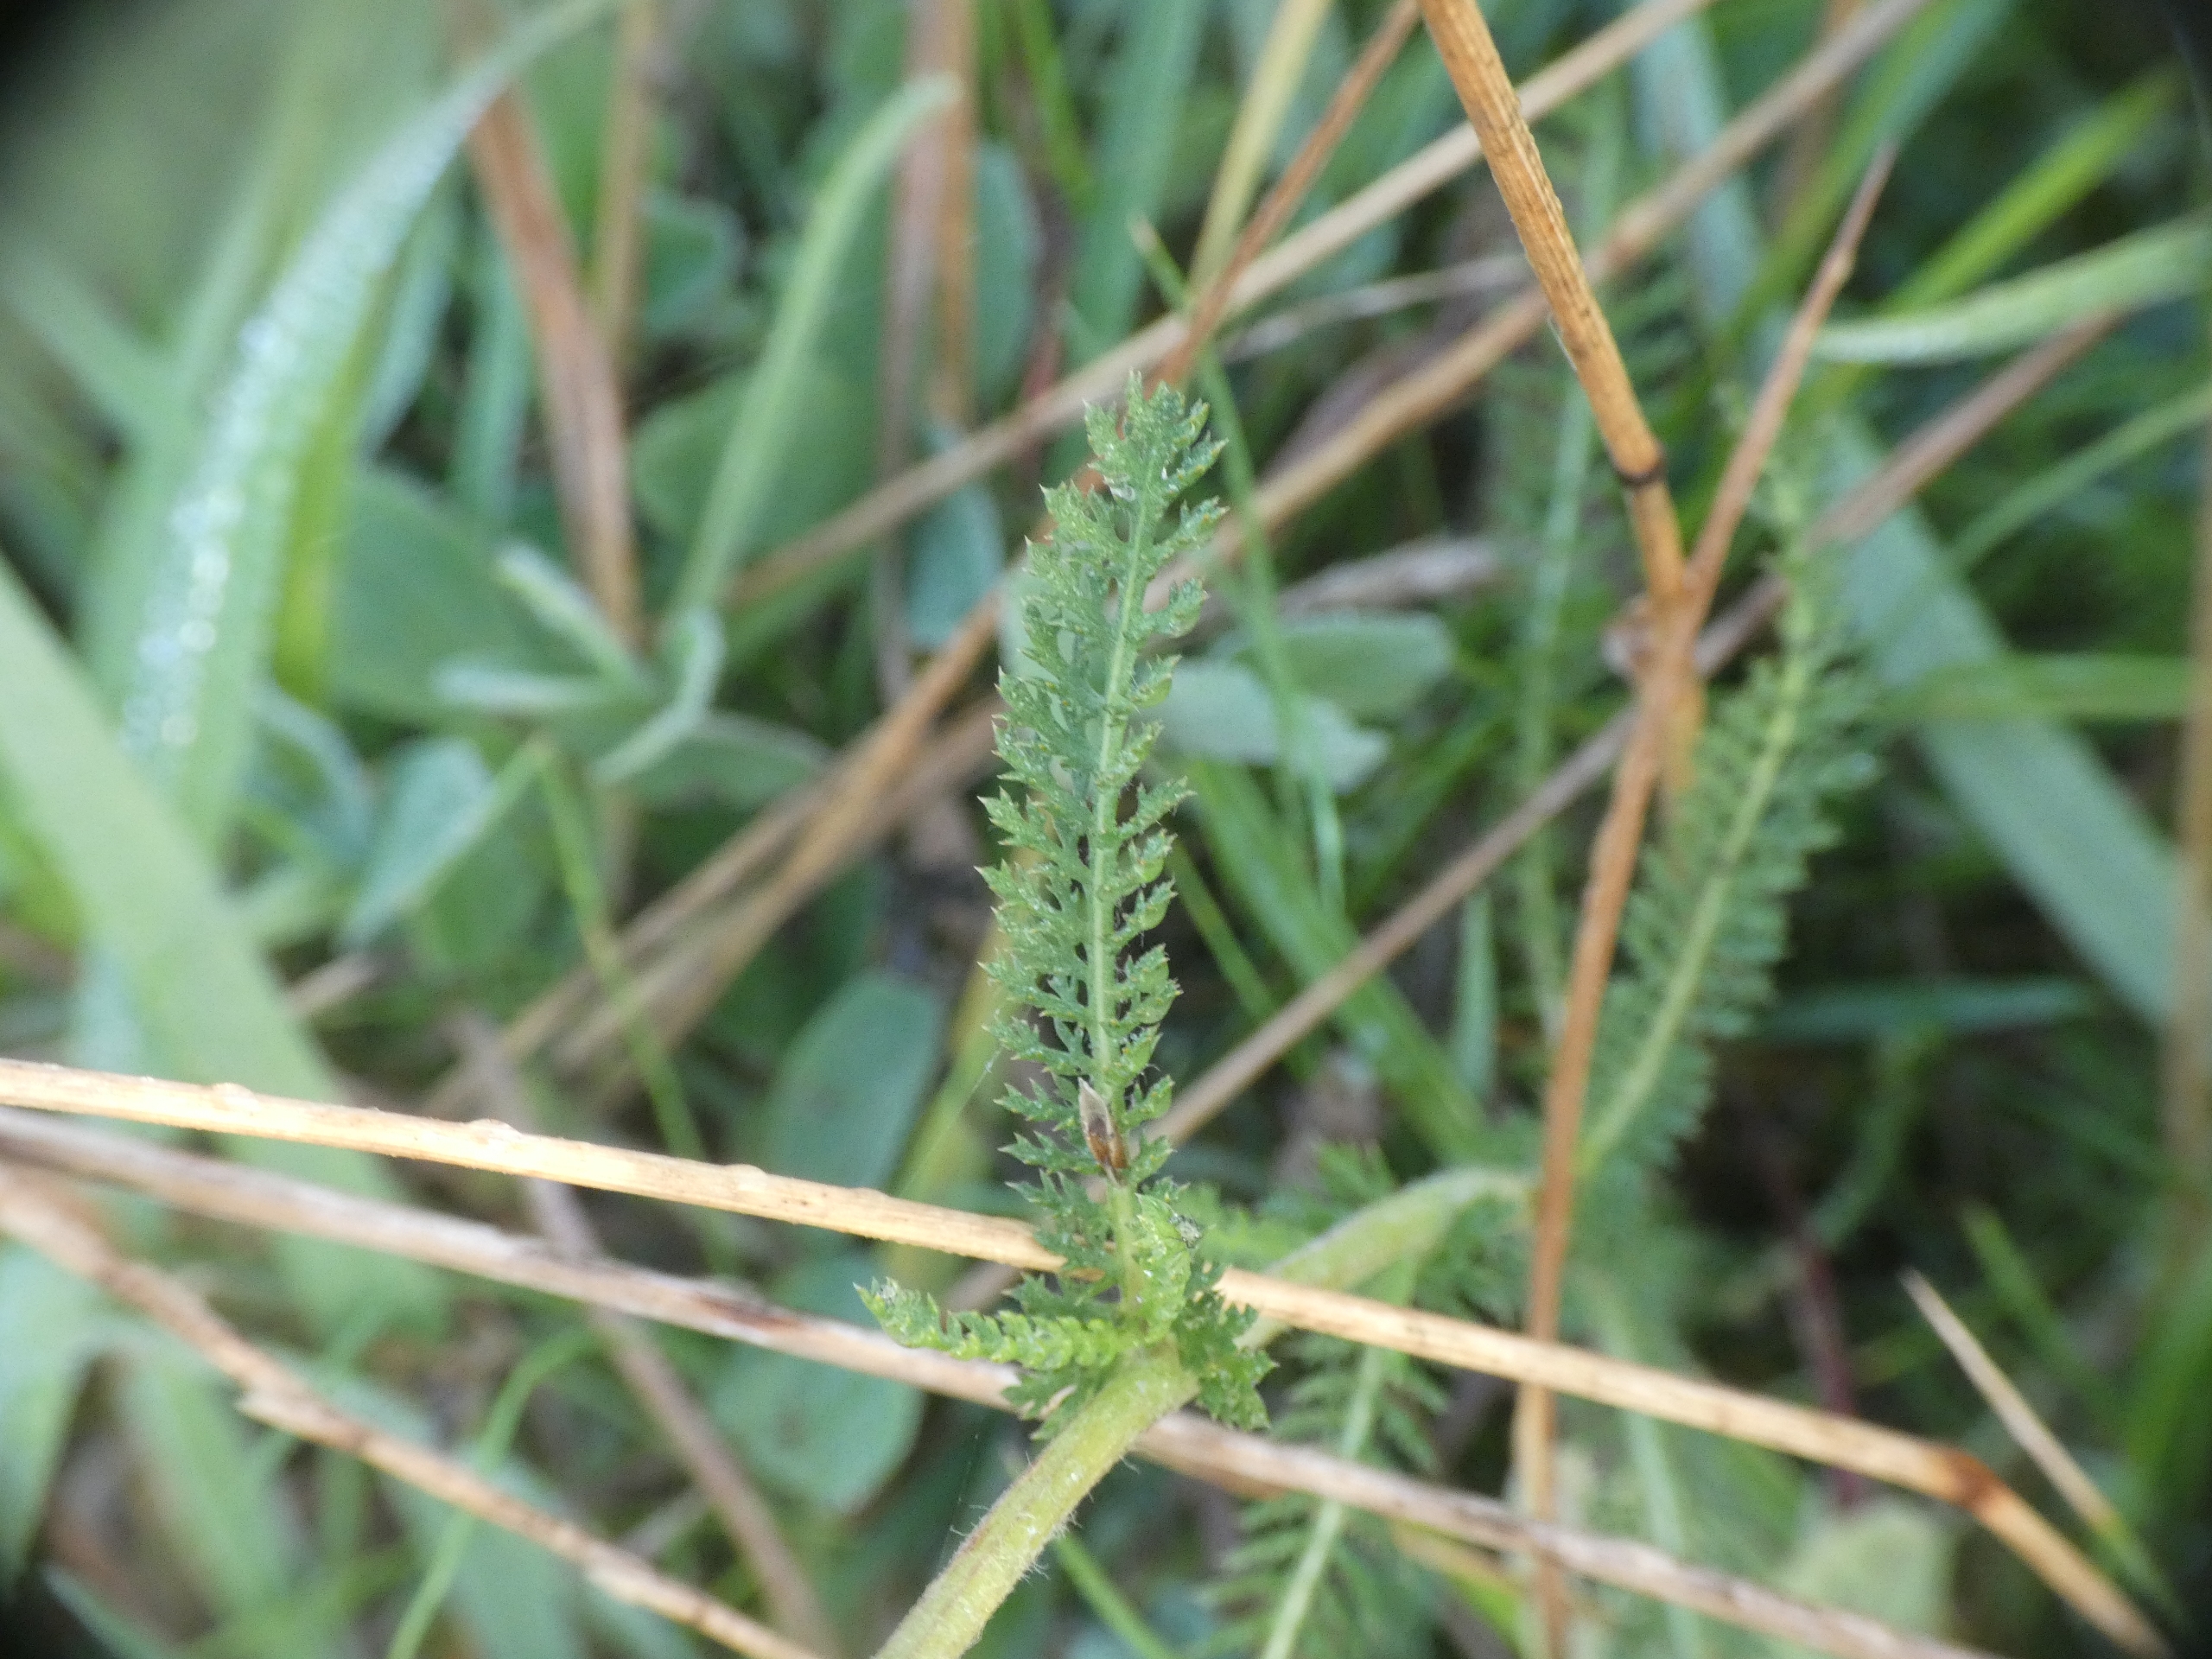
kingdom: Plantae
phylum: Tracheophyta
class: Magnoliopsida
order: Asterales
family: Asteraceae
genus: Achillea
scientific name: Achillea millefolium
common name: Almindelig røllike
